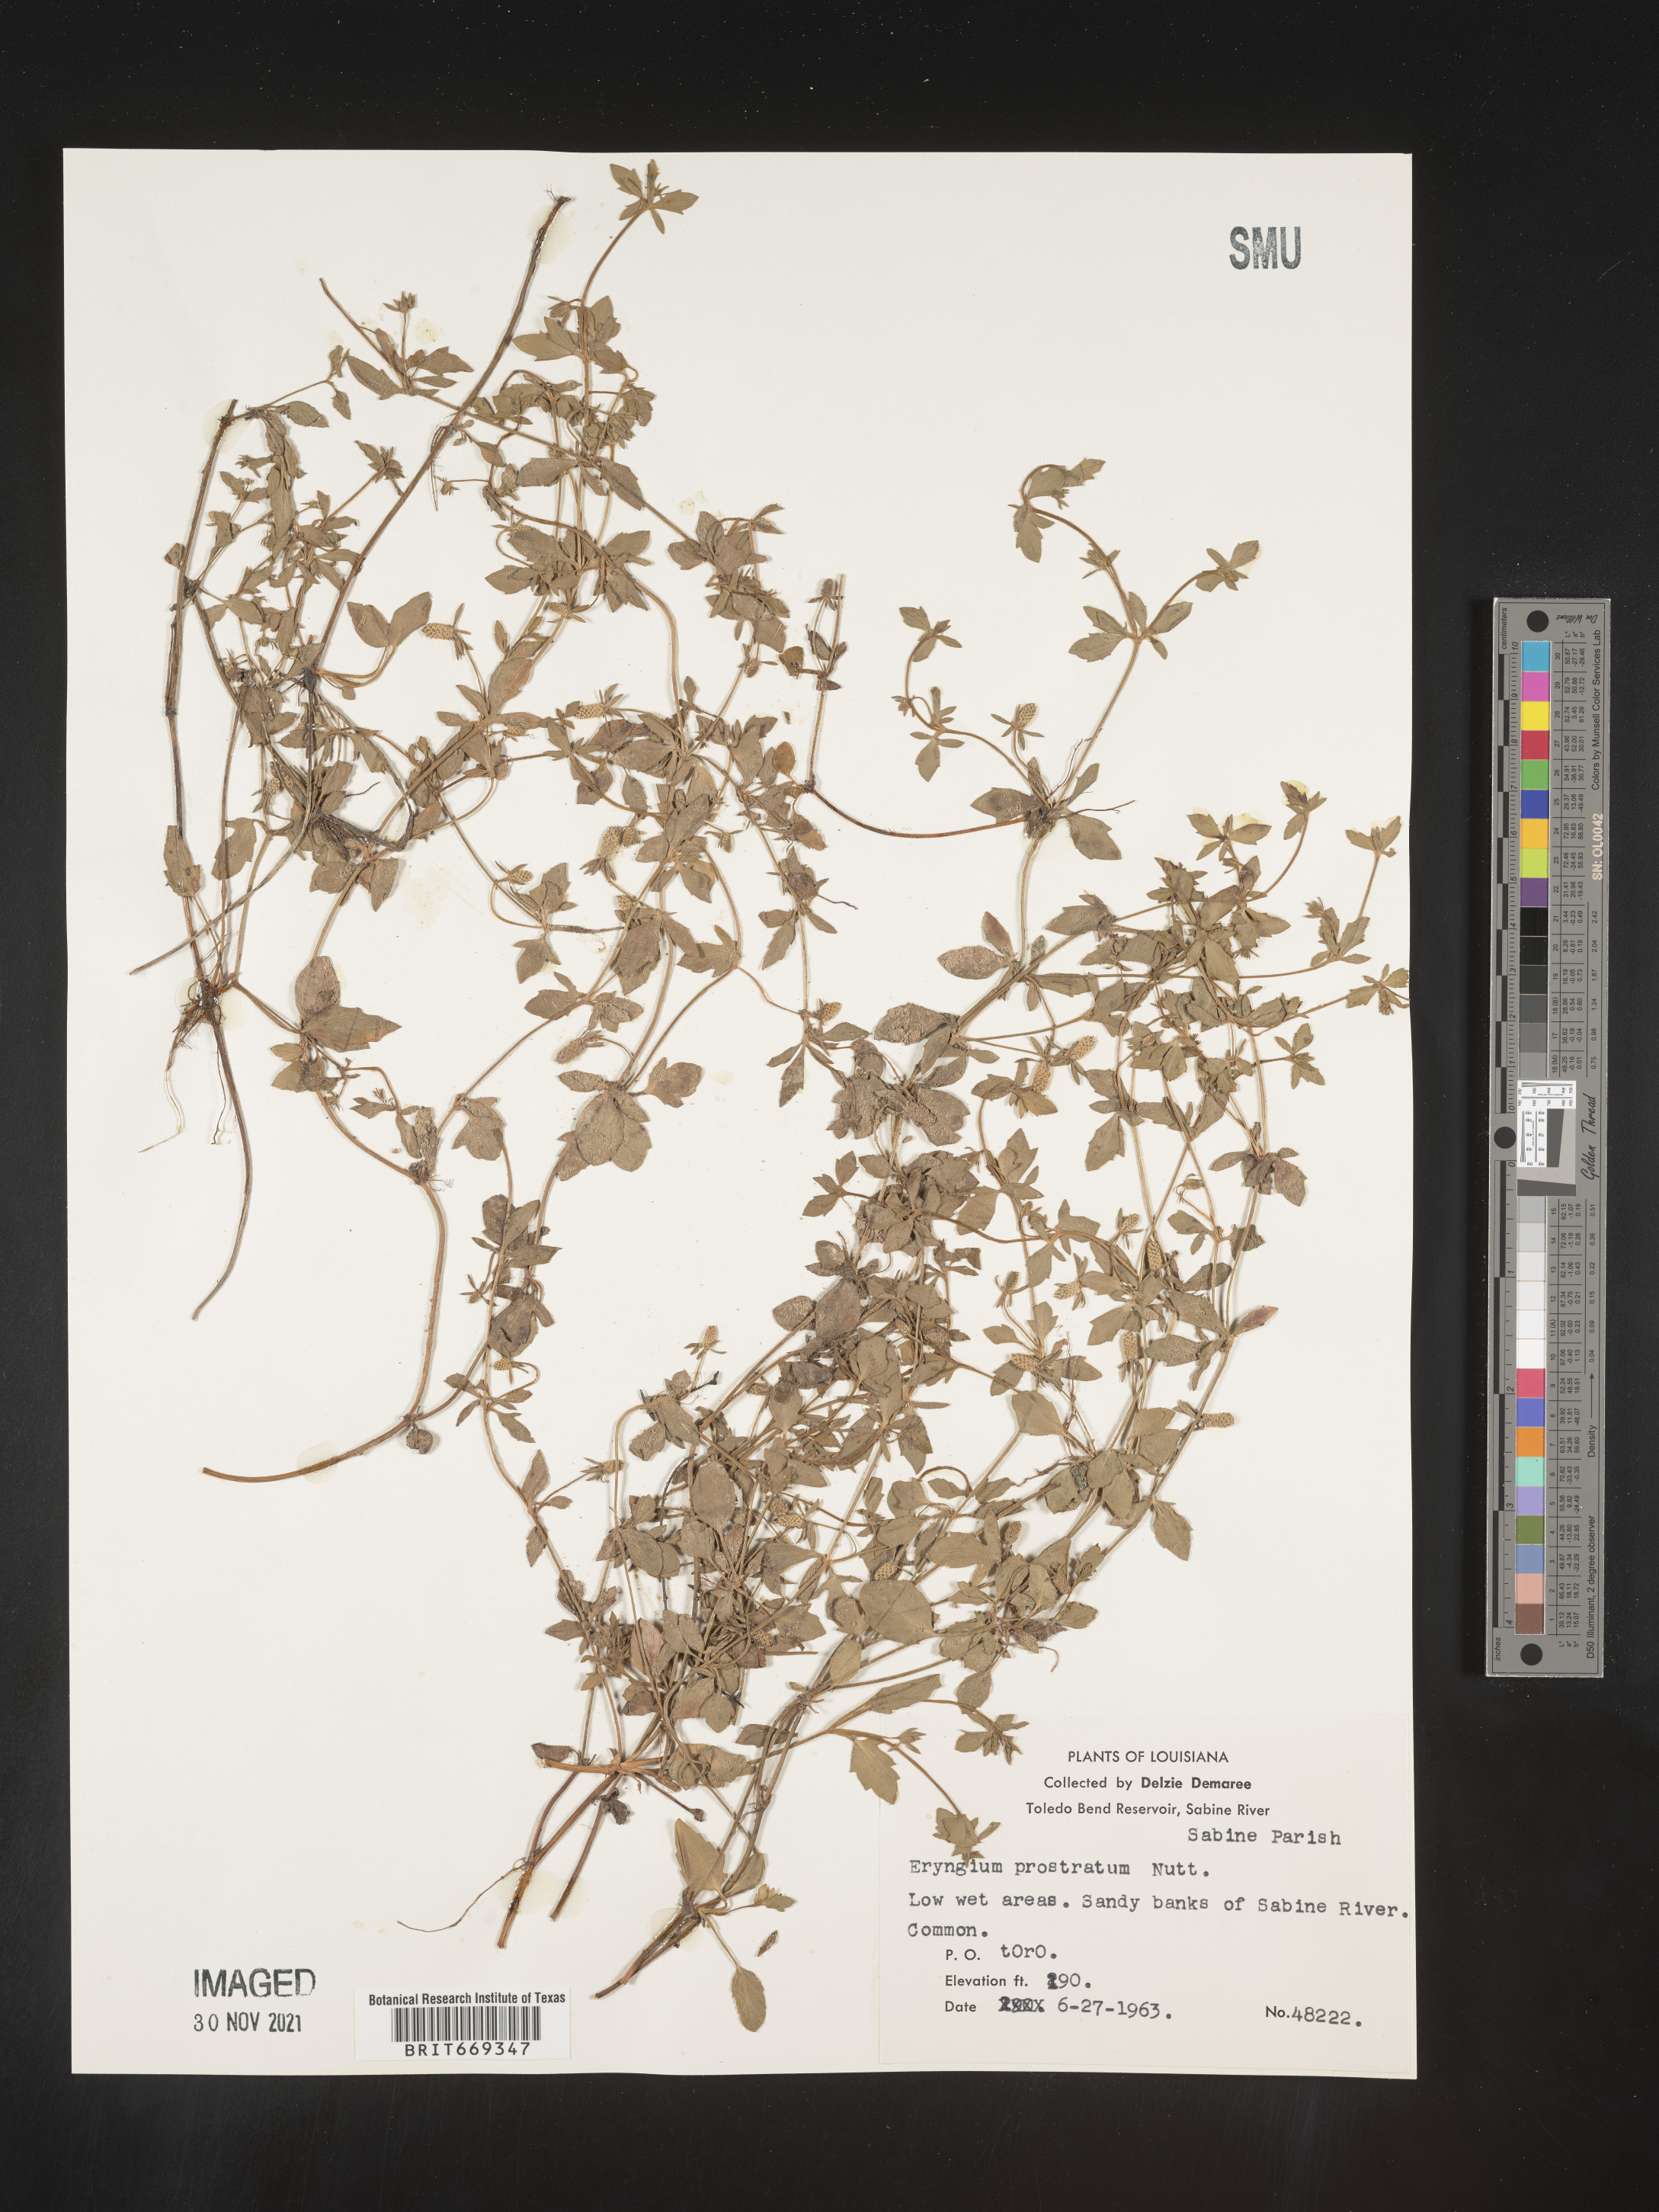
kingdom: Plantae
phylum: Tracheophyta
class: Magnoliopsida
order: Apiales
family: Apiaceae
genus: Eryngium
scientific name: Eryngium prostratum
